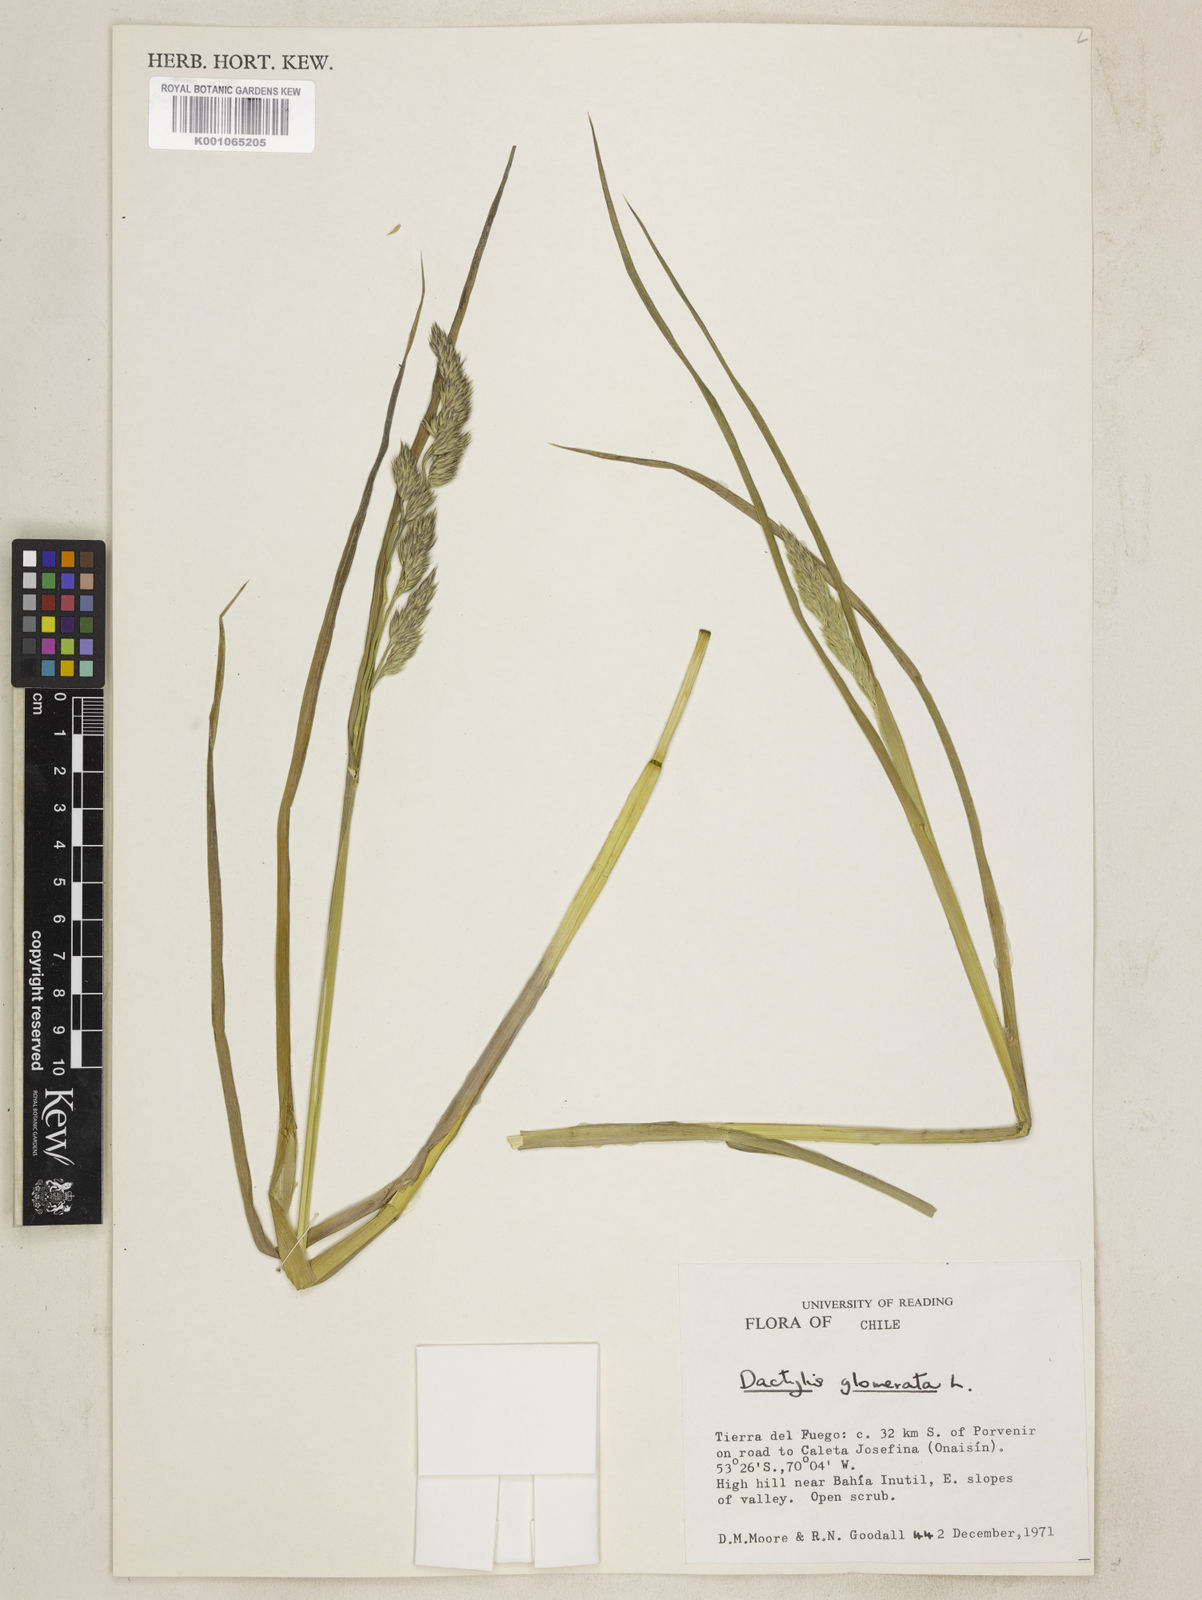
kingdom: Plantae
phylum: Tracheophyta
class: Liliopsida
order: Poales
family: Poaceae
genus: Dactylis
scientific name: Dactylis glomerata
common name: Orchardgrass
